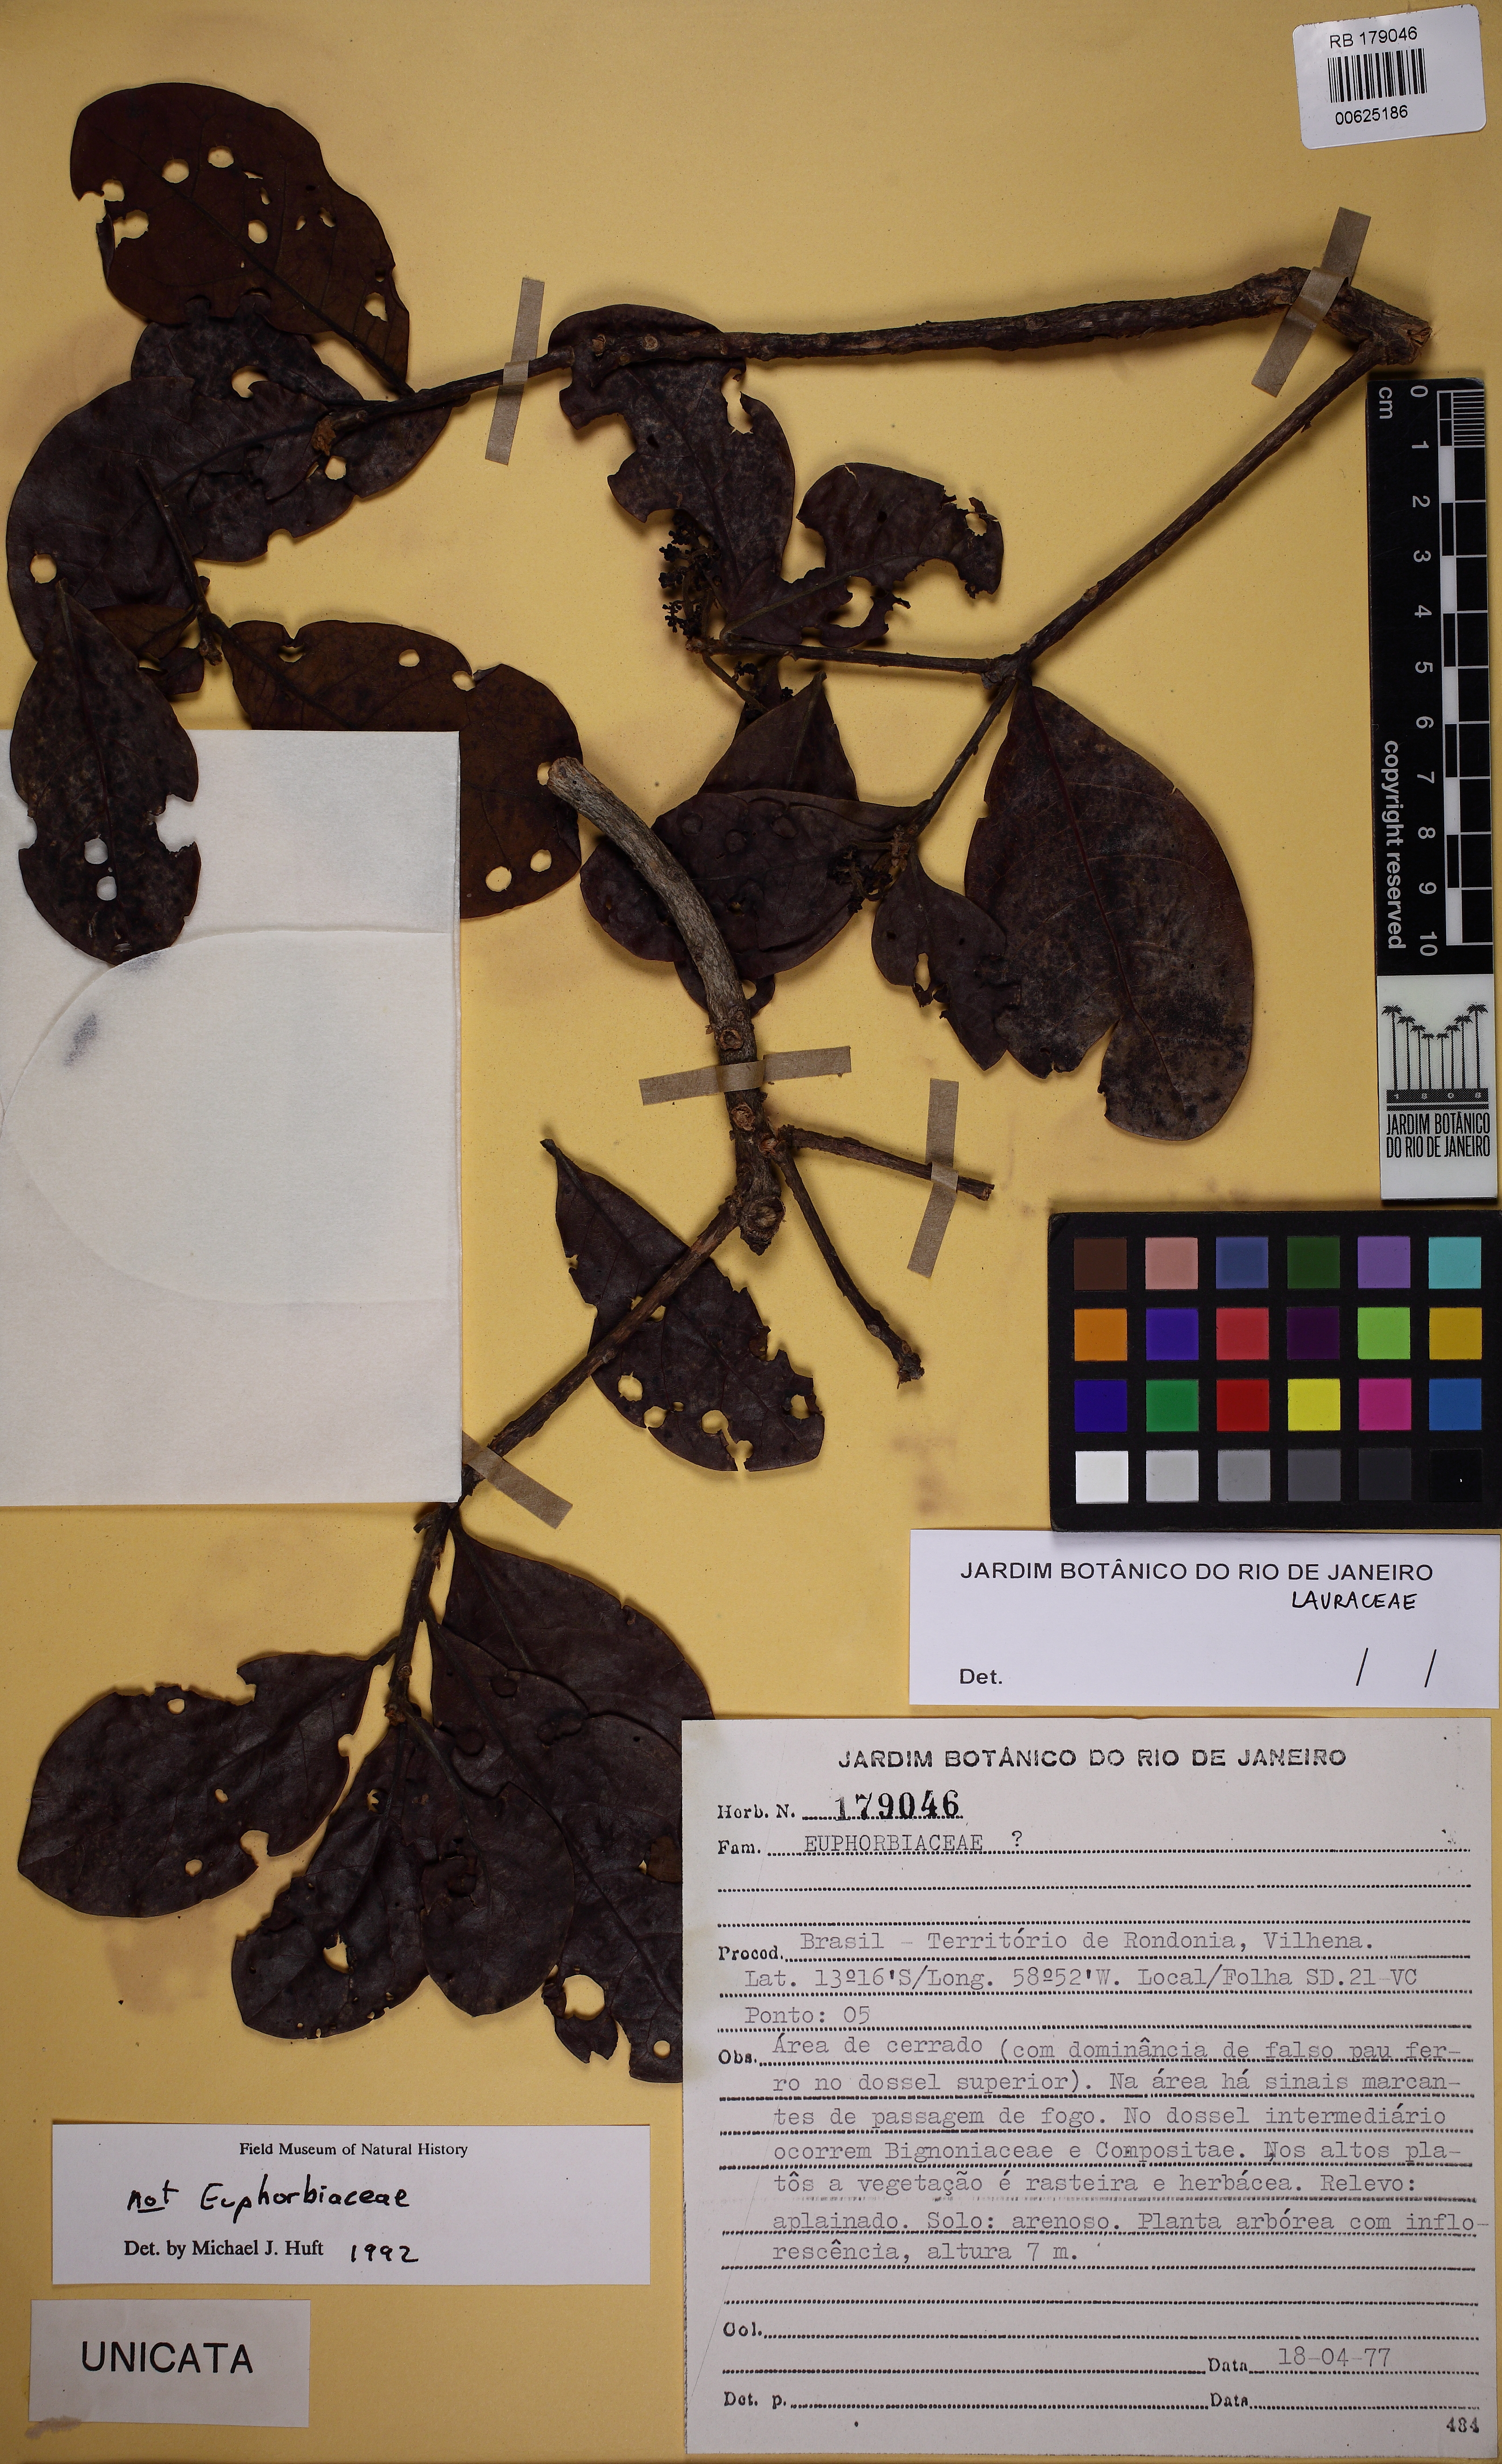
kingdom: Plantae
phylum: Tracheophyta
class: Magnoliopsida
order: Laurales
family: Lauraceae
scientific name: Lauraceae
